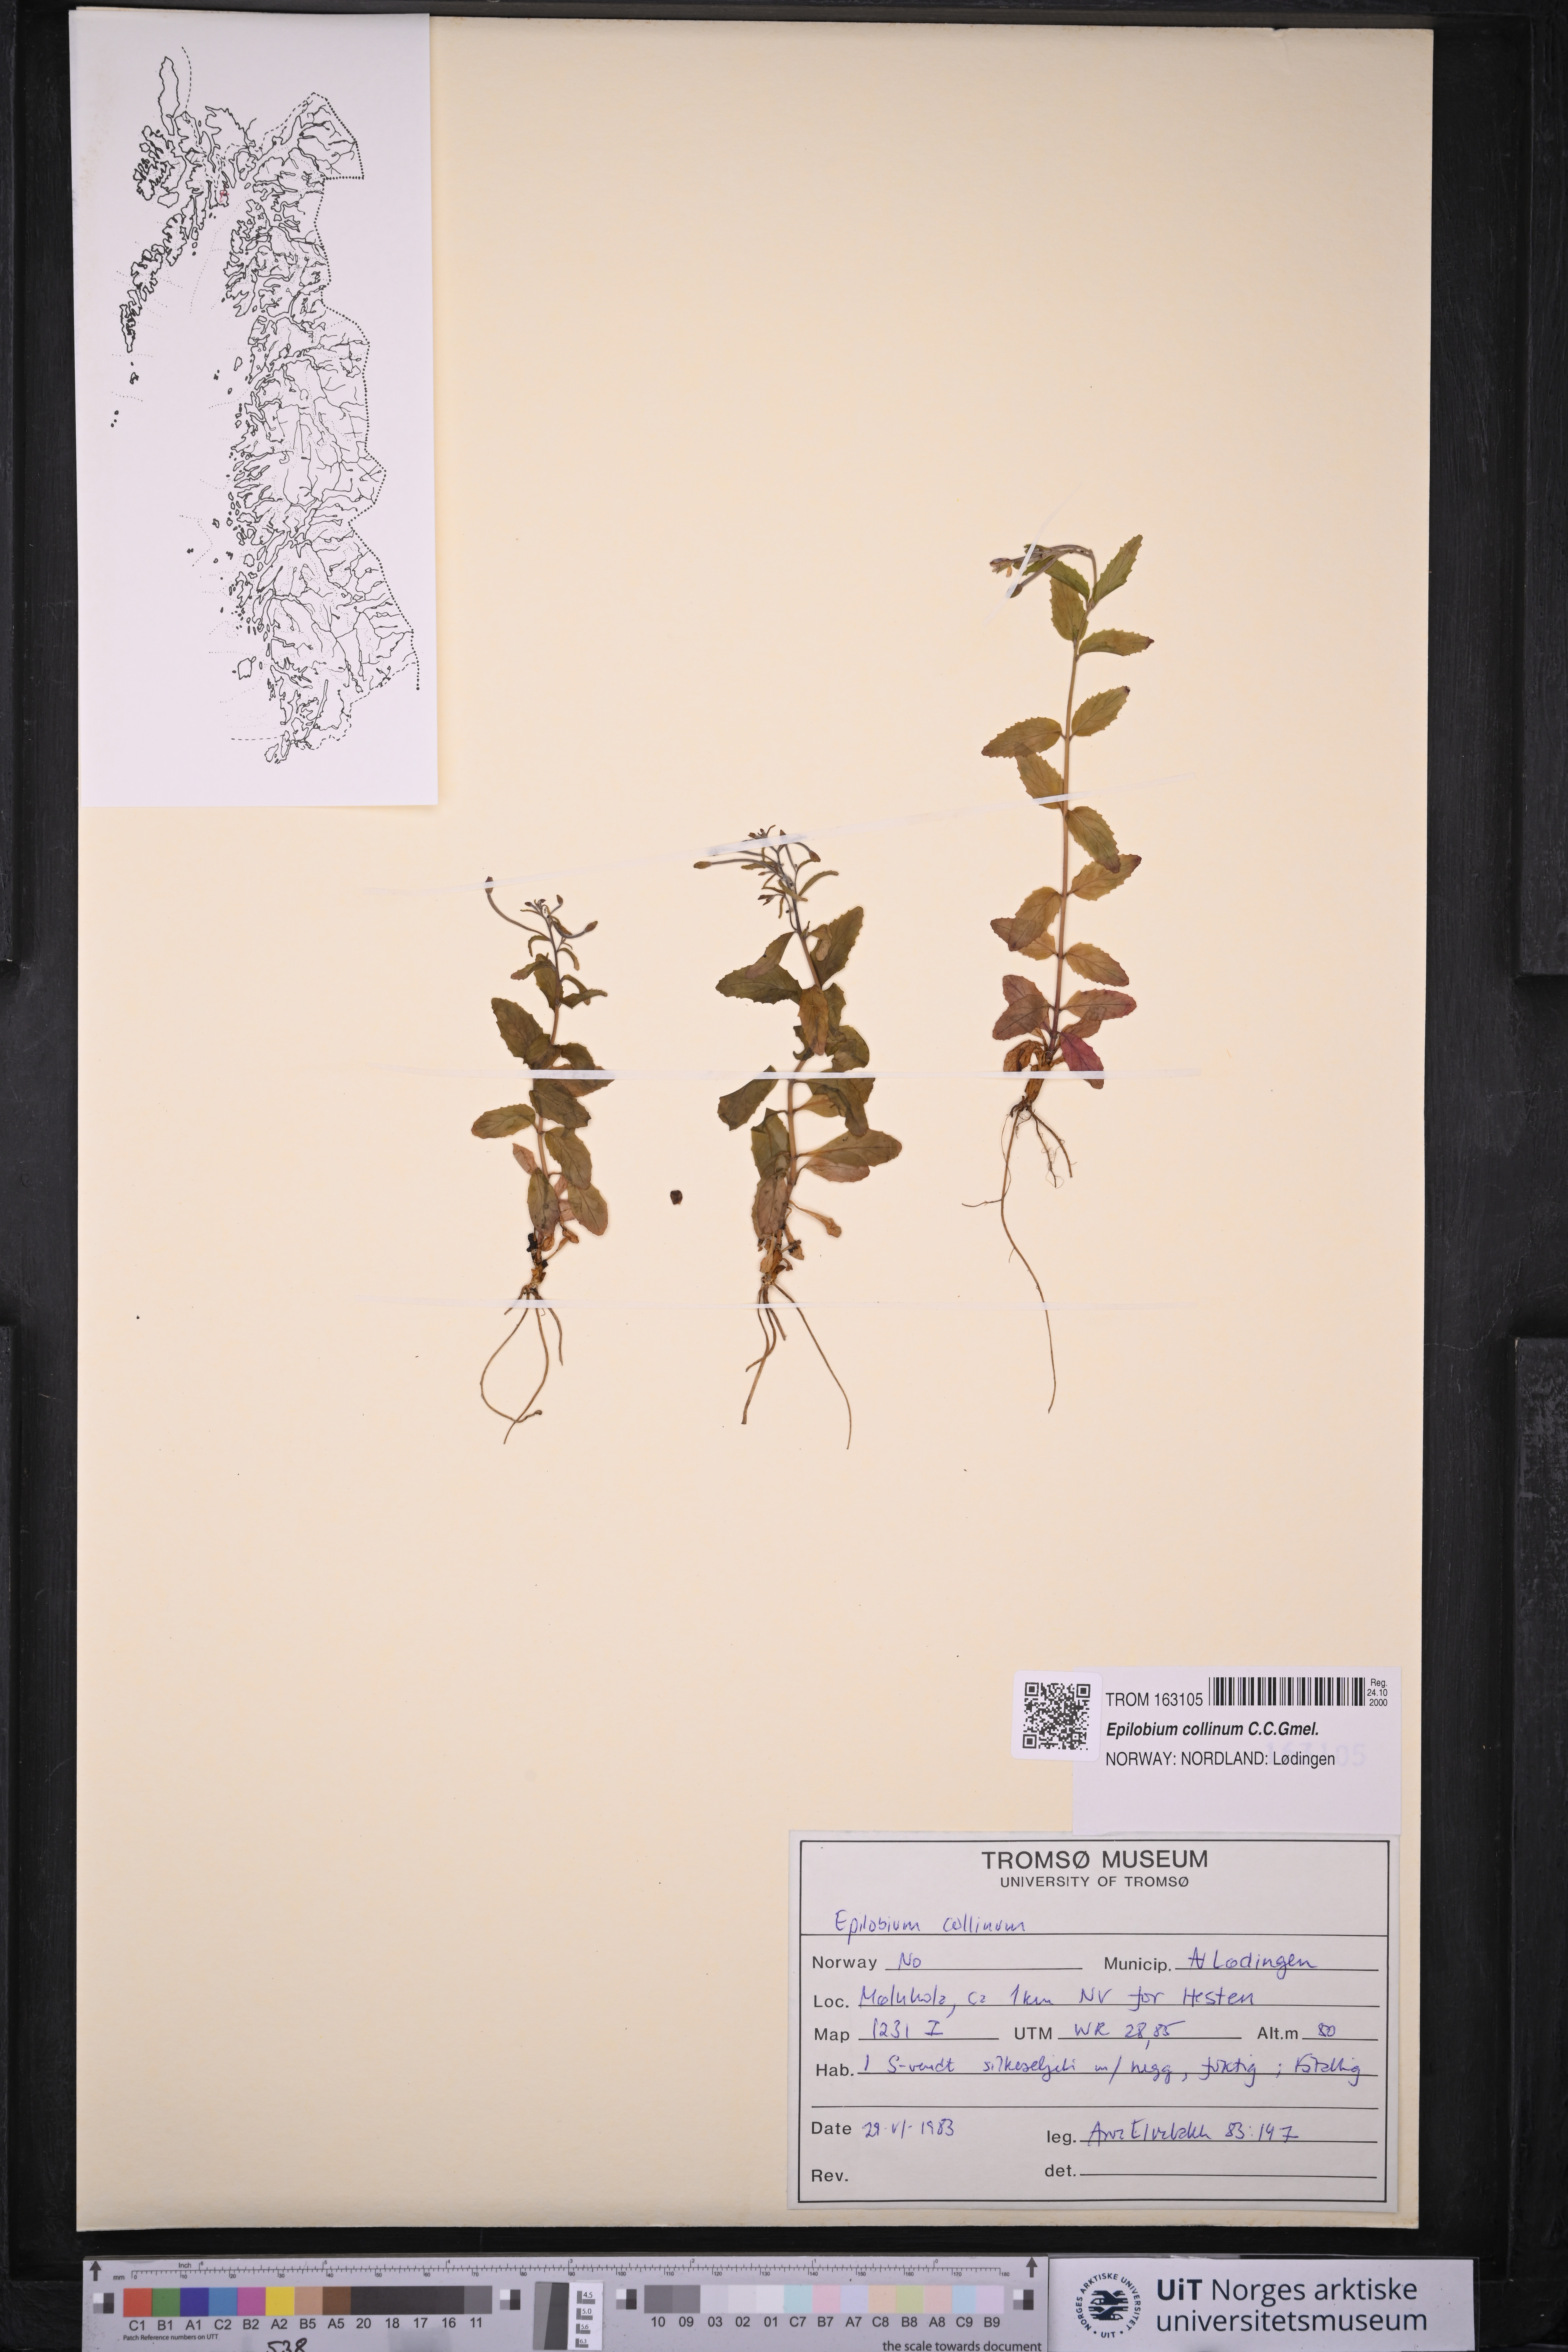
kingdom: Plantae
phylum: Tracheophyta
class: Magnoliopsida
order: Myrtales
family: Onagraceae
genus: Epilobium
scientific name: Epilobium collinum
